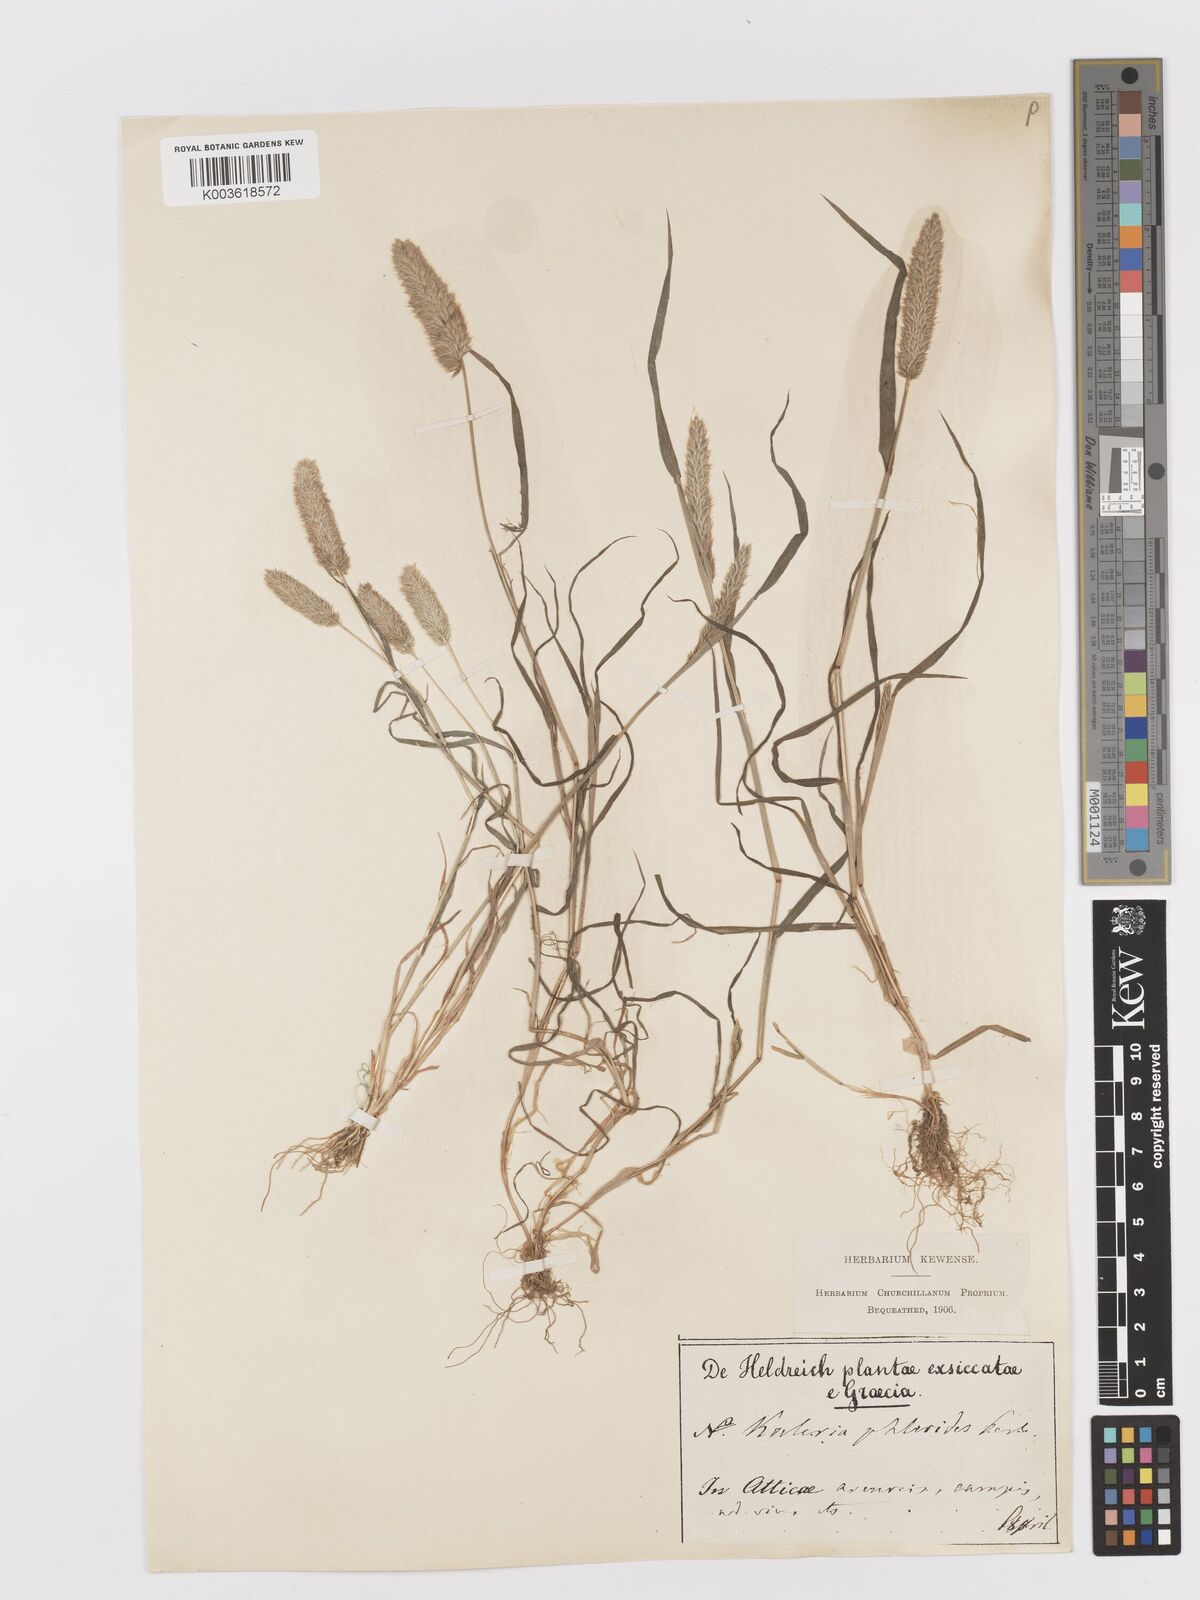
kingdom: Plantae
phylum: Tracheophyta
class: Liliopsida
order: Poales
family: Poaceae
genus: Rostraria
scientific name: Rostraria cristata
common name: Mediterranean hair-grass
